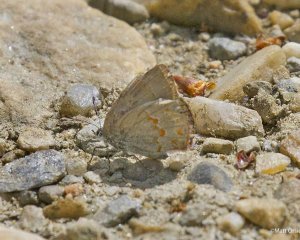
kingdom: Animalia
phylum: Arthropoda
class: Insecta
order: Lepidoptera
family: Lycaenidae
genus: Erora
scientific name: Erora laeta
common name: Early Hairstreak
